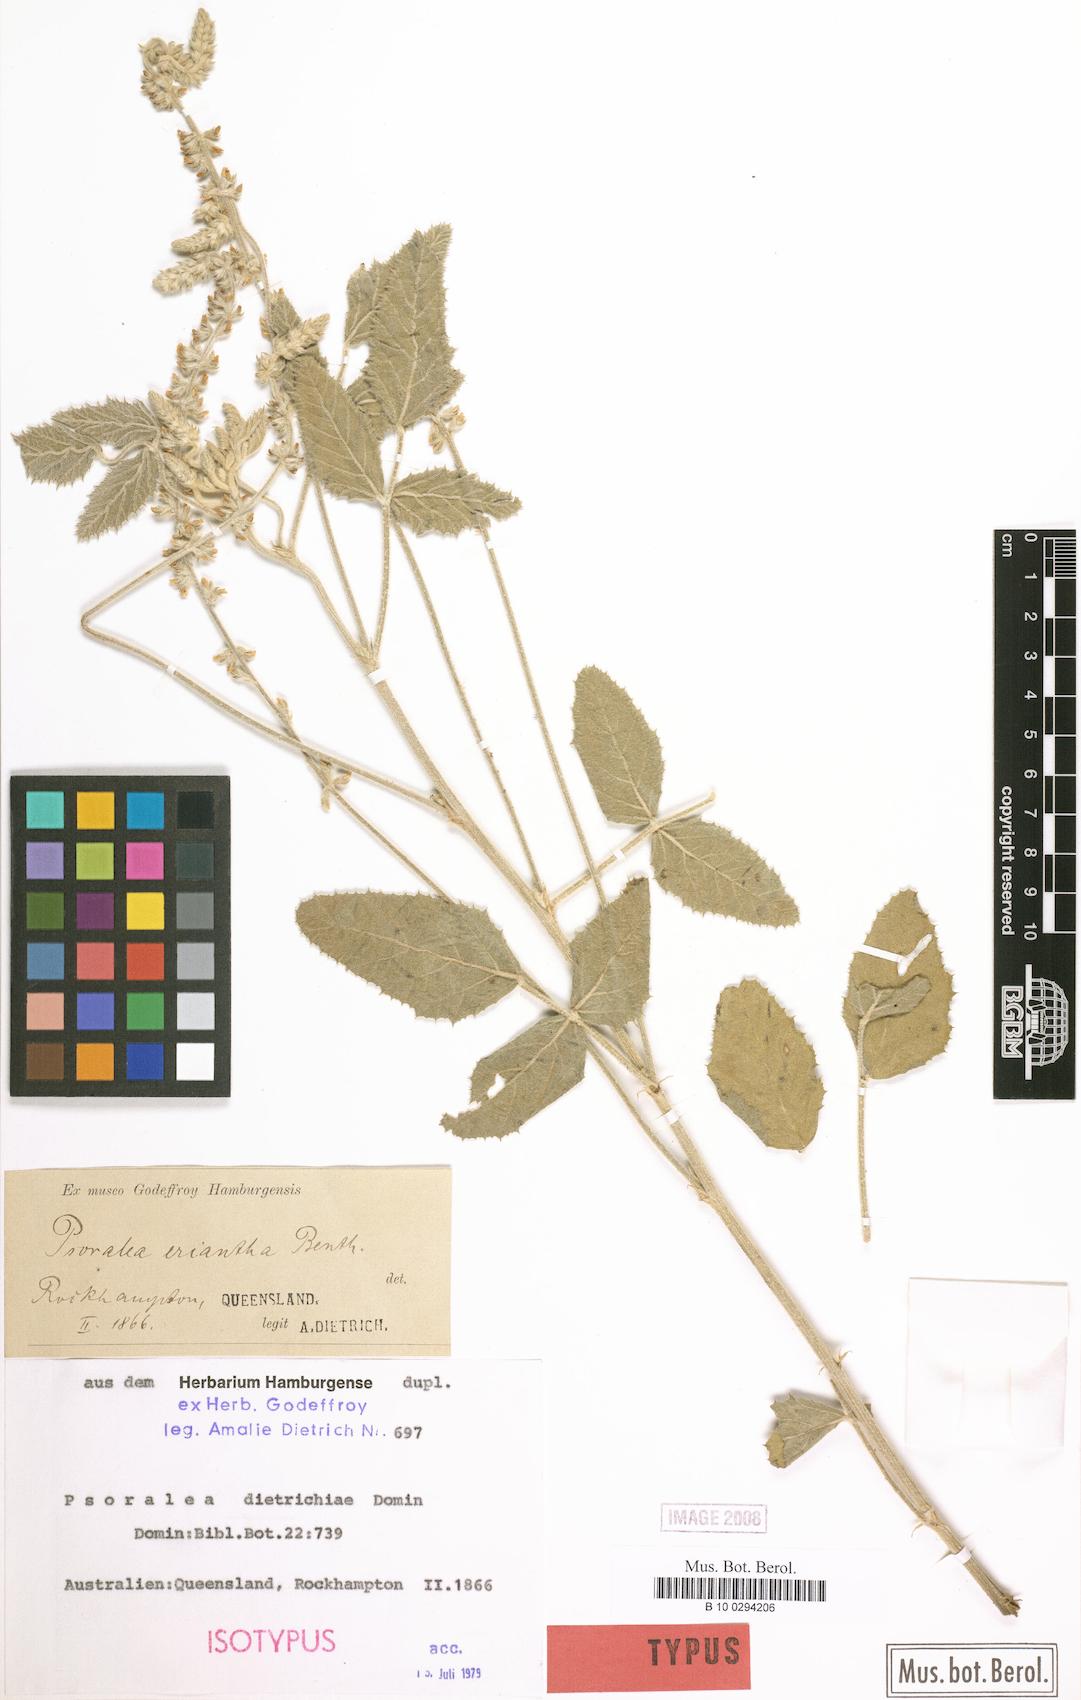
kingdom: Plantae
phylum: Tracheophyta
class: Magnoliopsida
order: Fabales
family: Fabaceae
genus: Cullen
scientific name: Cullen australasicum
